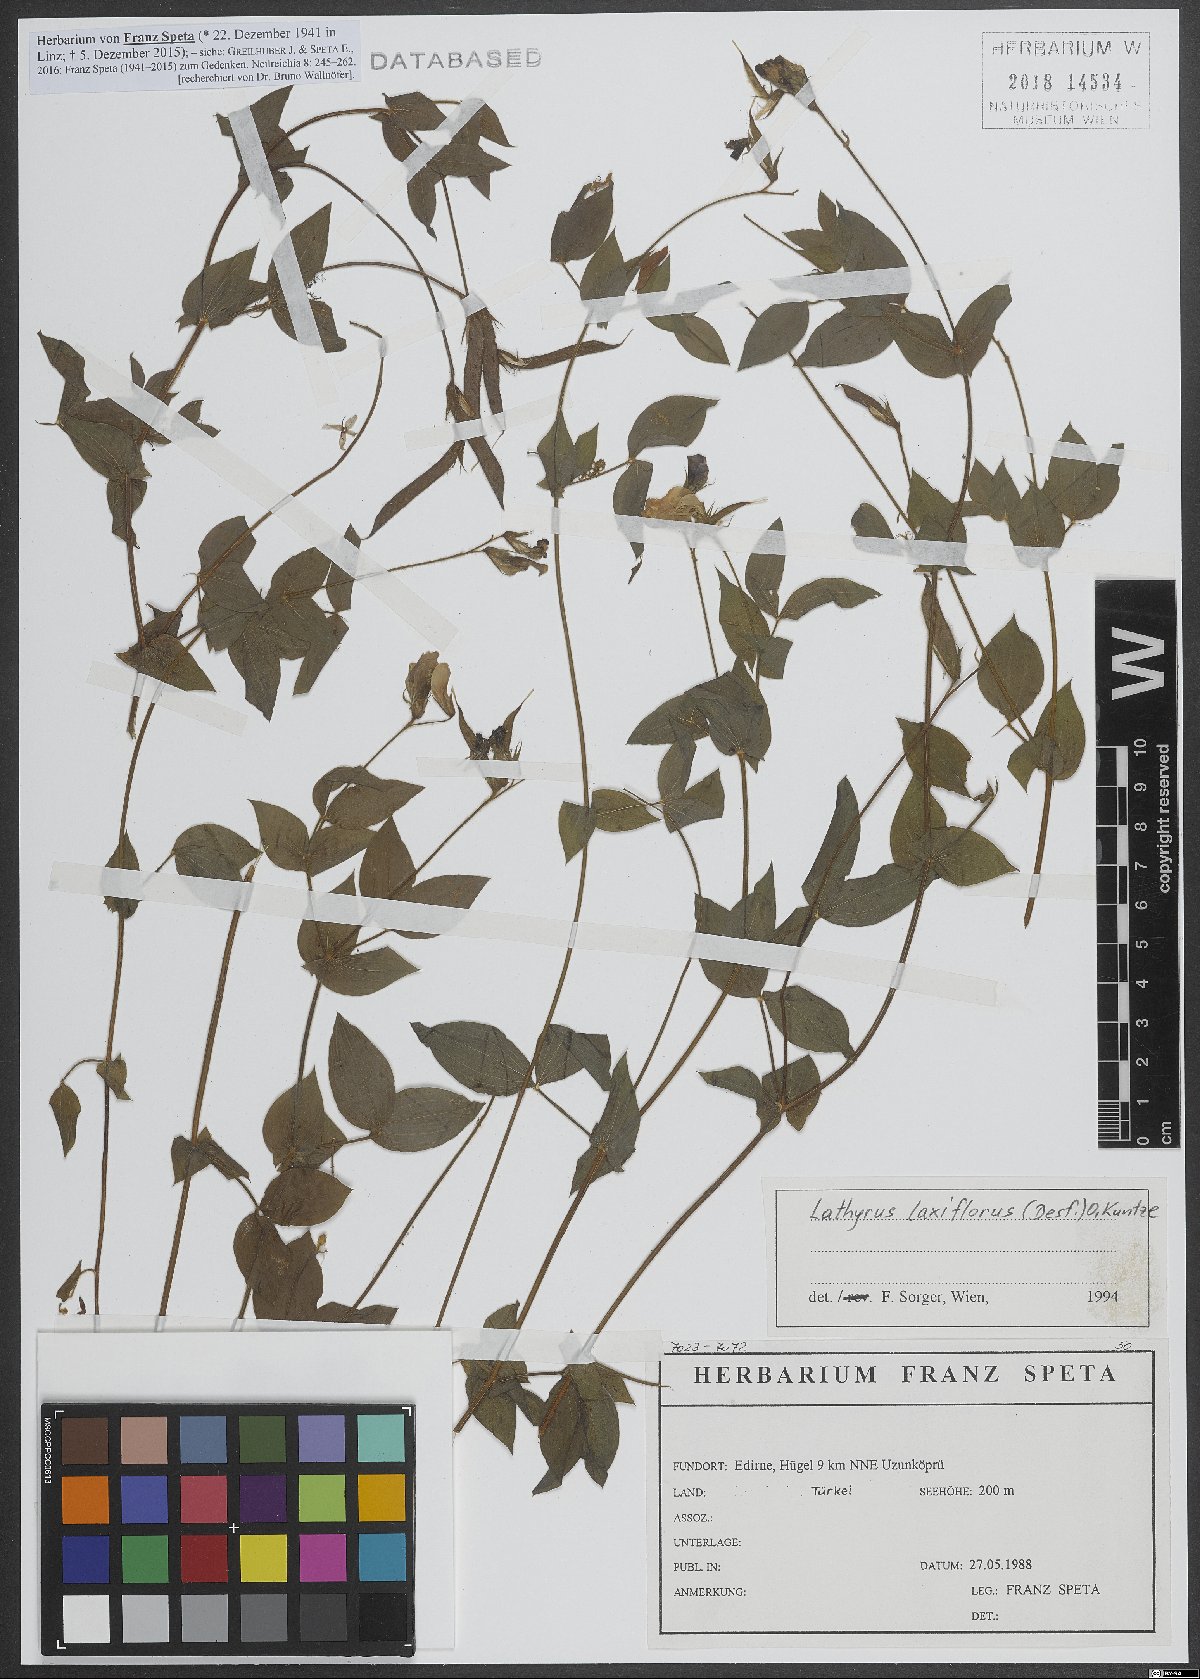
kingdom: Plantae
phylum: Tracheophyta
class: Magnoliopsida
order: Fabales
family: Fabaceae
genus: Lathyrus
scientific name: Lathyrus laxiflorus
